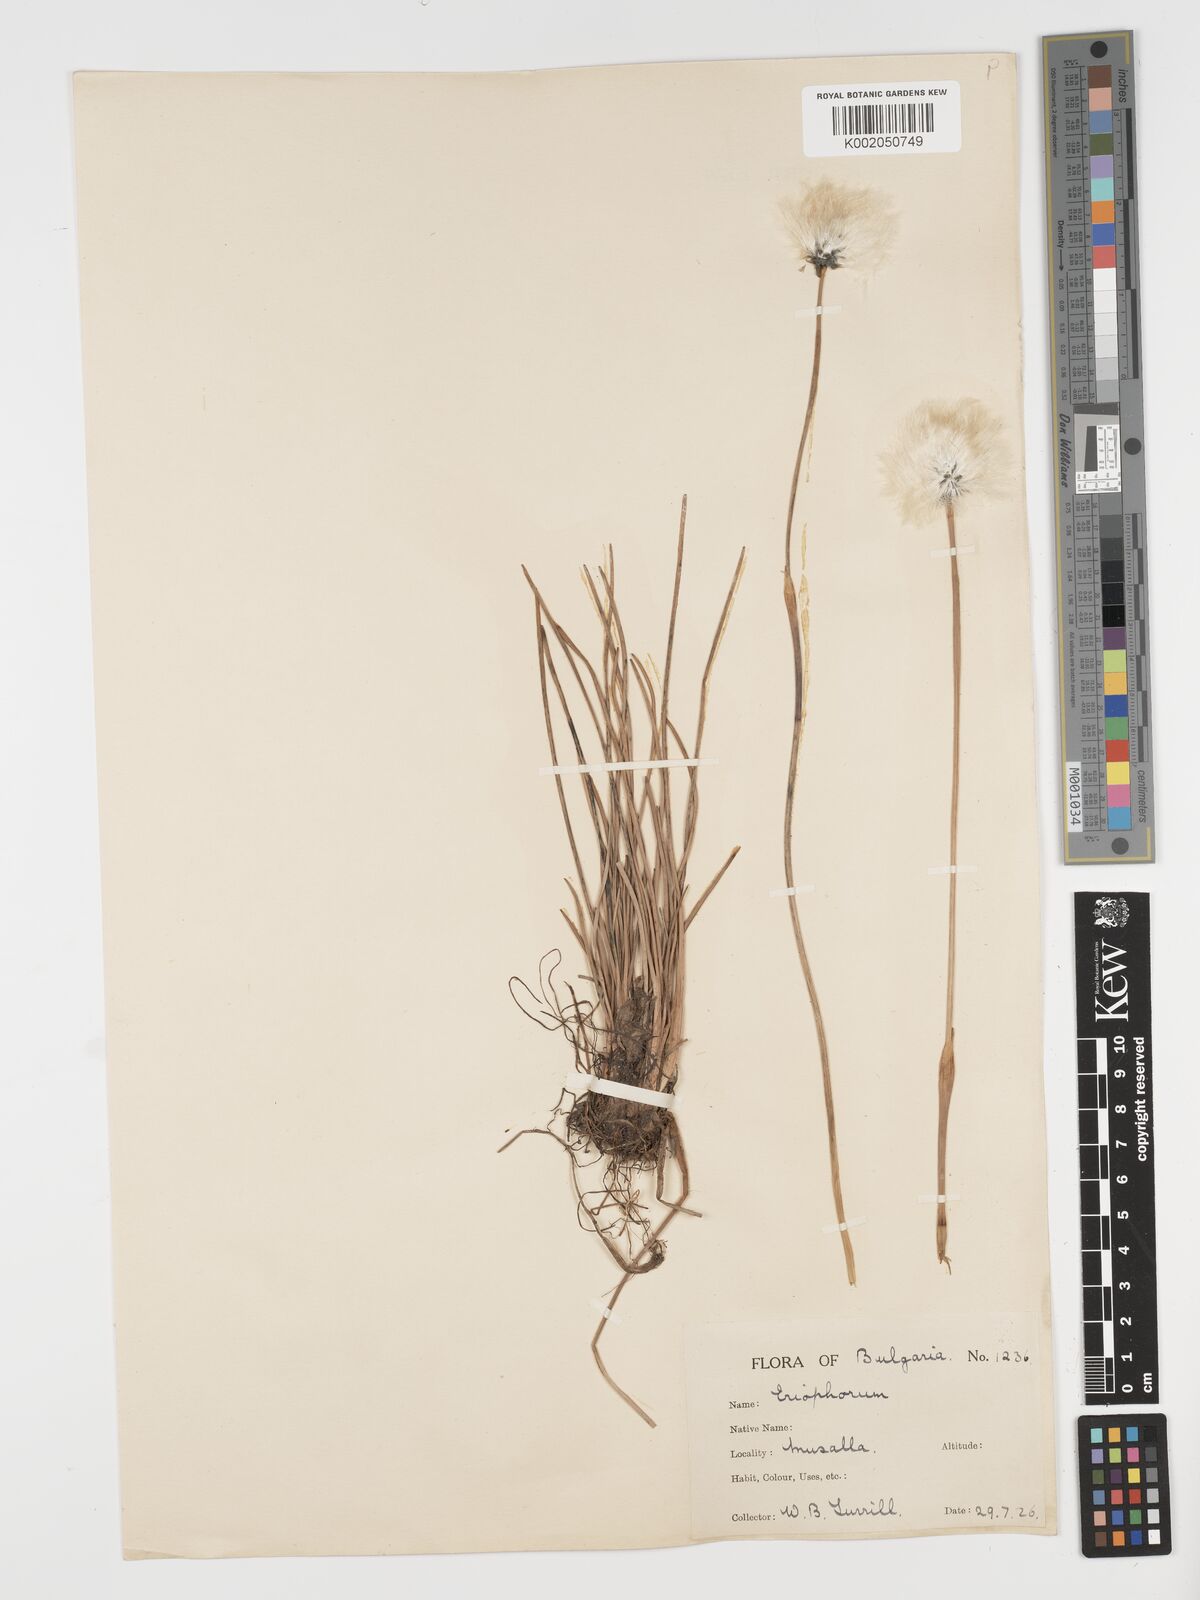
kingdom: Plantae
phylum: Tracheophyta
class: Liliopsida
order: Poales
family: Cyperaceae
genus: Eriophorum
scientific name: Eriophorum vaginatum
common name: Hare's-tail cottongrass
